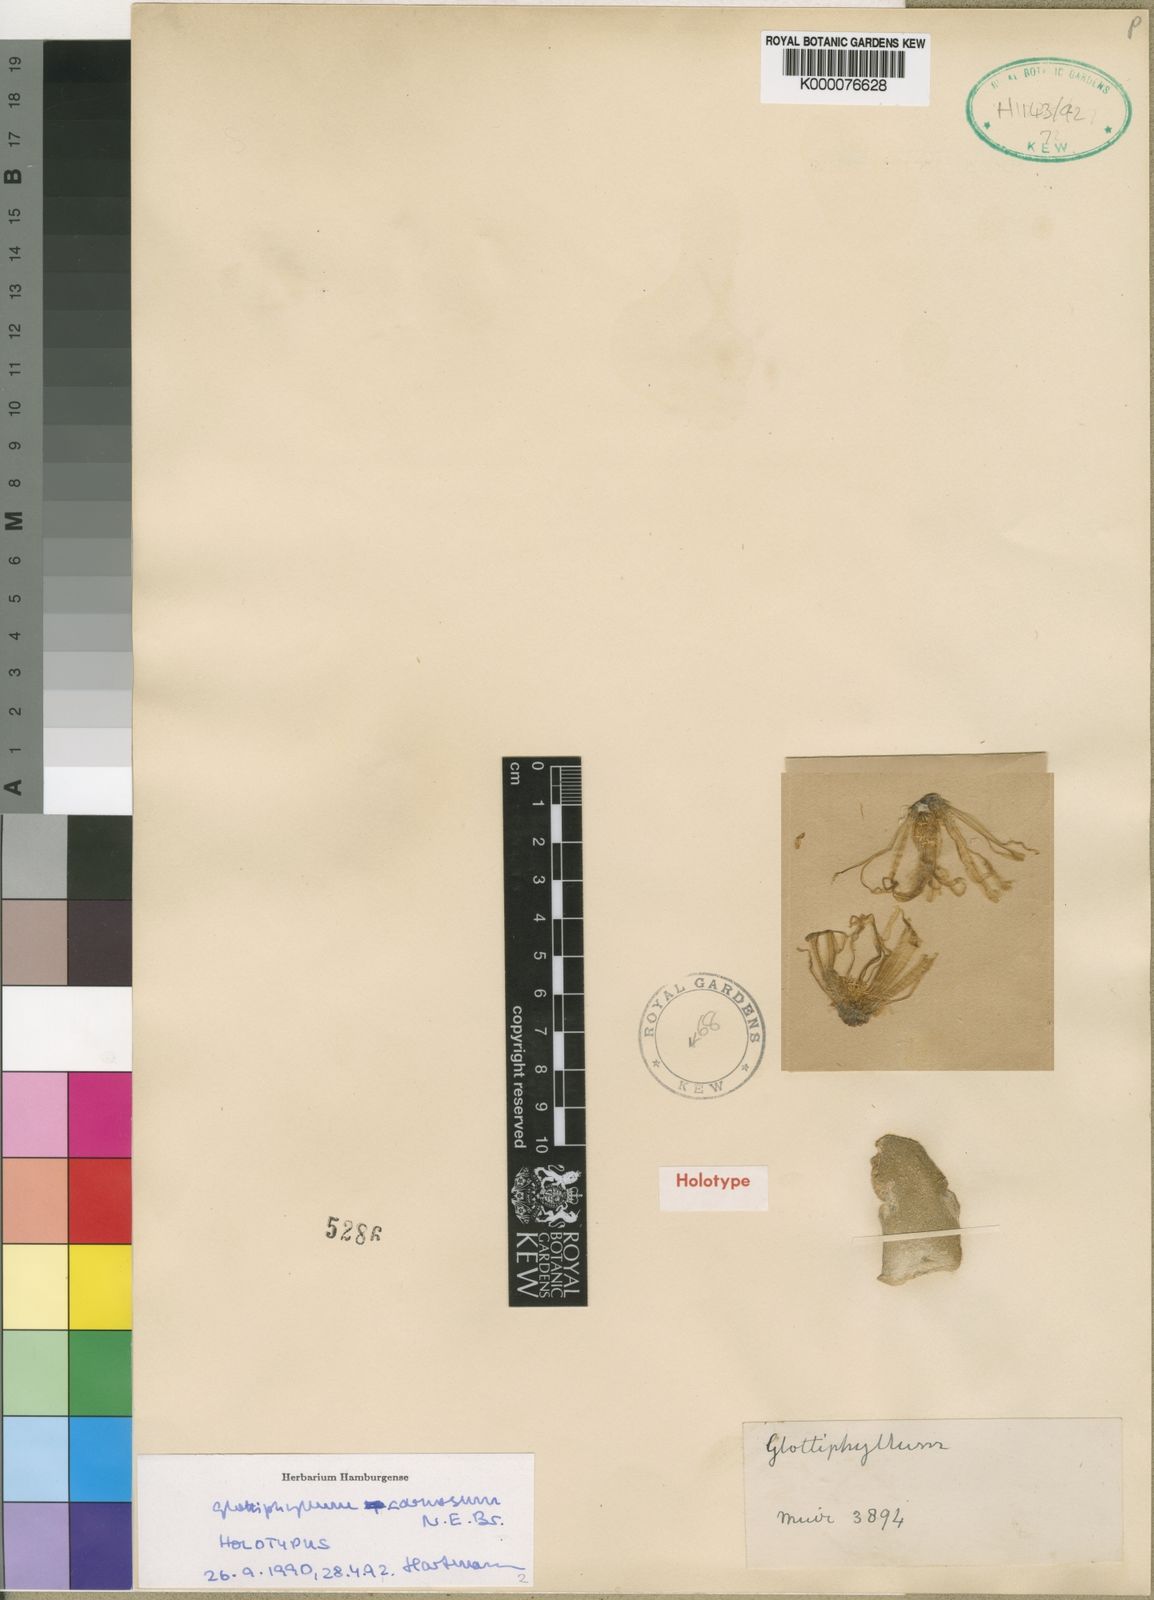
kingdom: Plantae
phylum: Tracheophyta
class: Magnoliopsida
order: Caryophyllales
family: Aizoaceae
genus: Glottiphyllum
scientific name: Glottiphyllum carnosum
